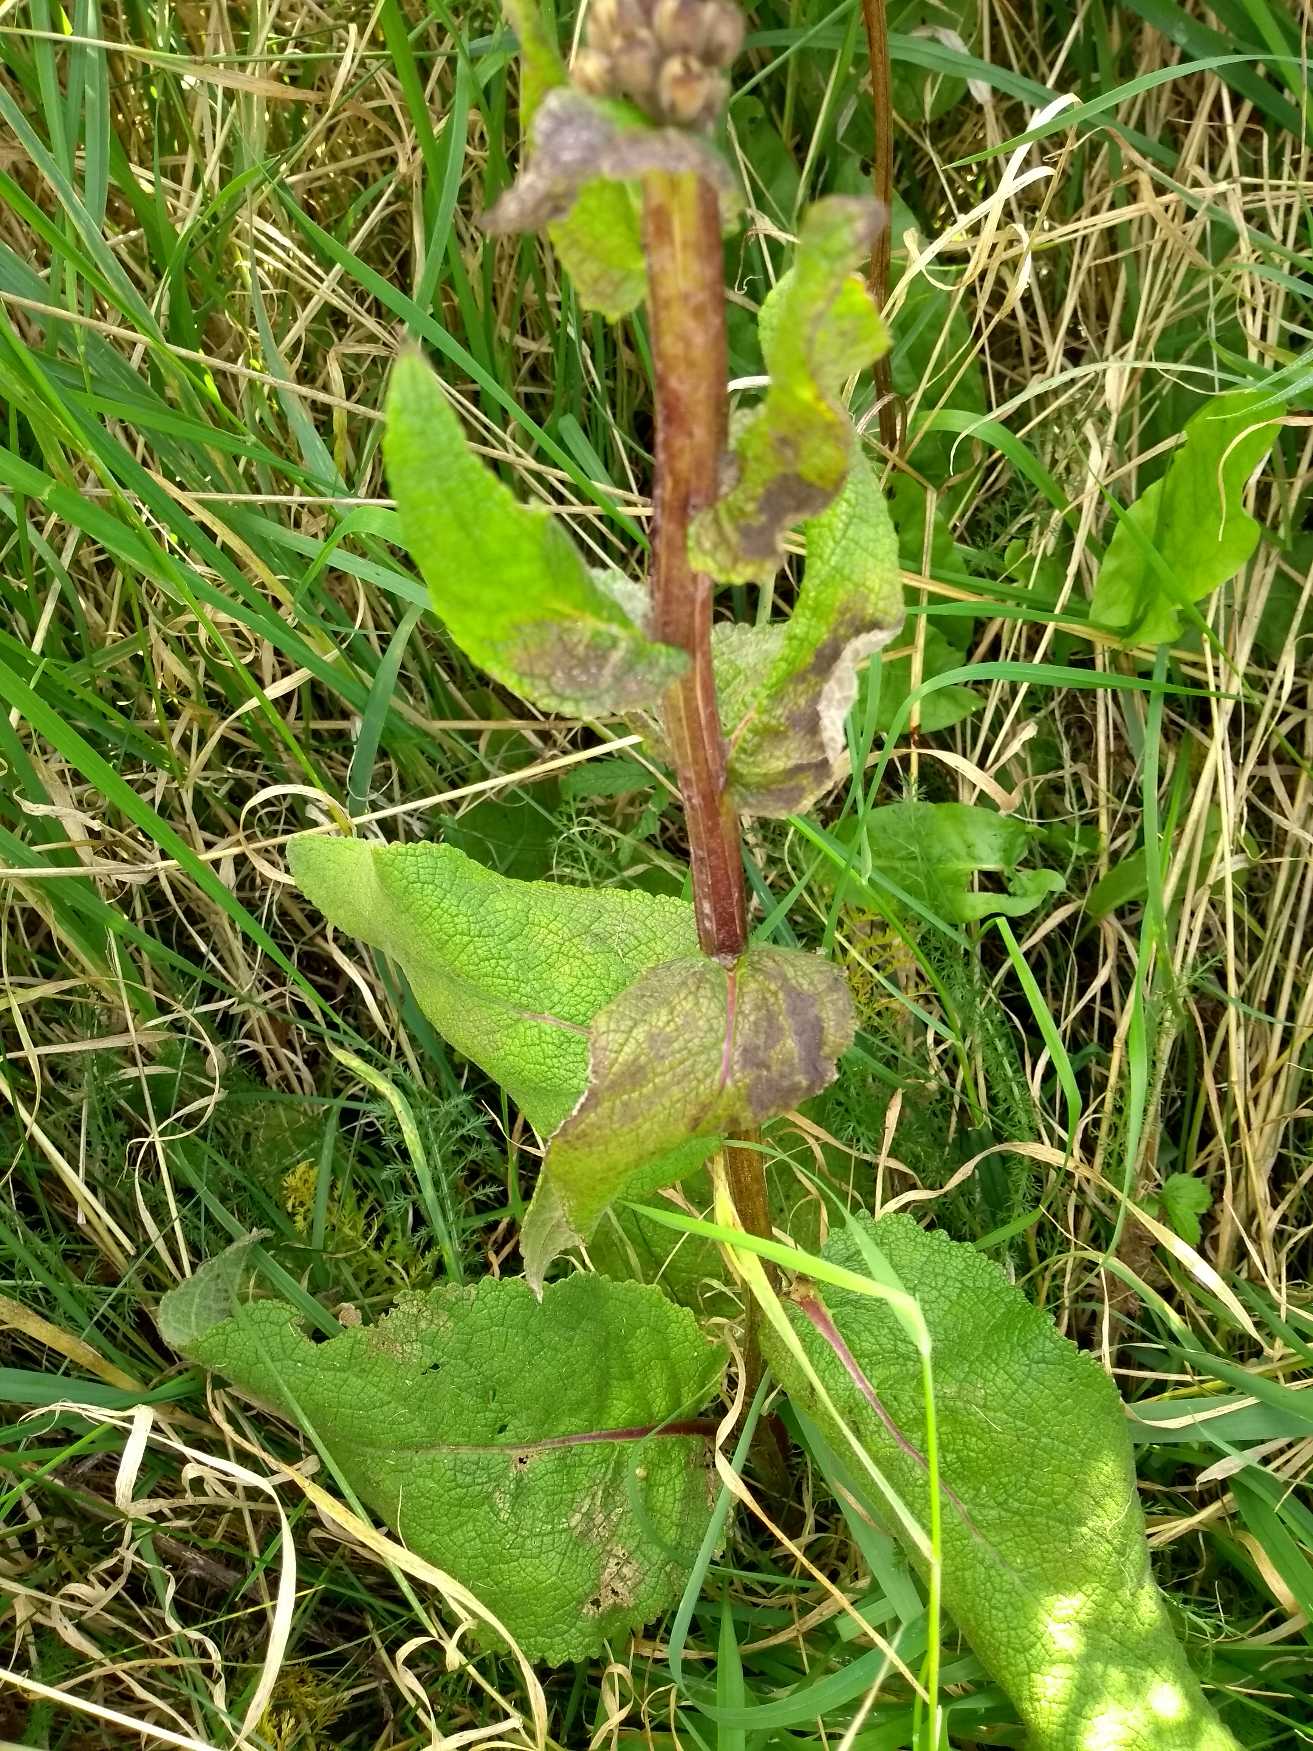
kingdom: Plantae
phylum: Tracheophyta
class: Magnoliopsida
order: Lamiales
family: Scrophulariaceae
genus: Verbascum
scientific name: Verbascum nigrum
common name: Mørk kongelys
